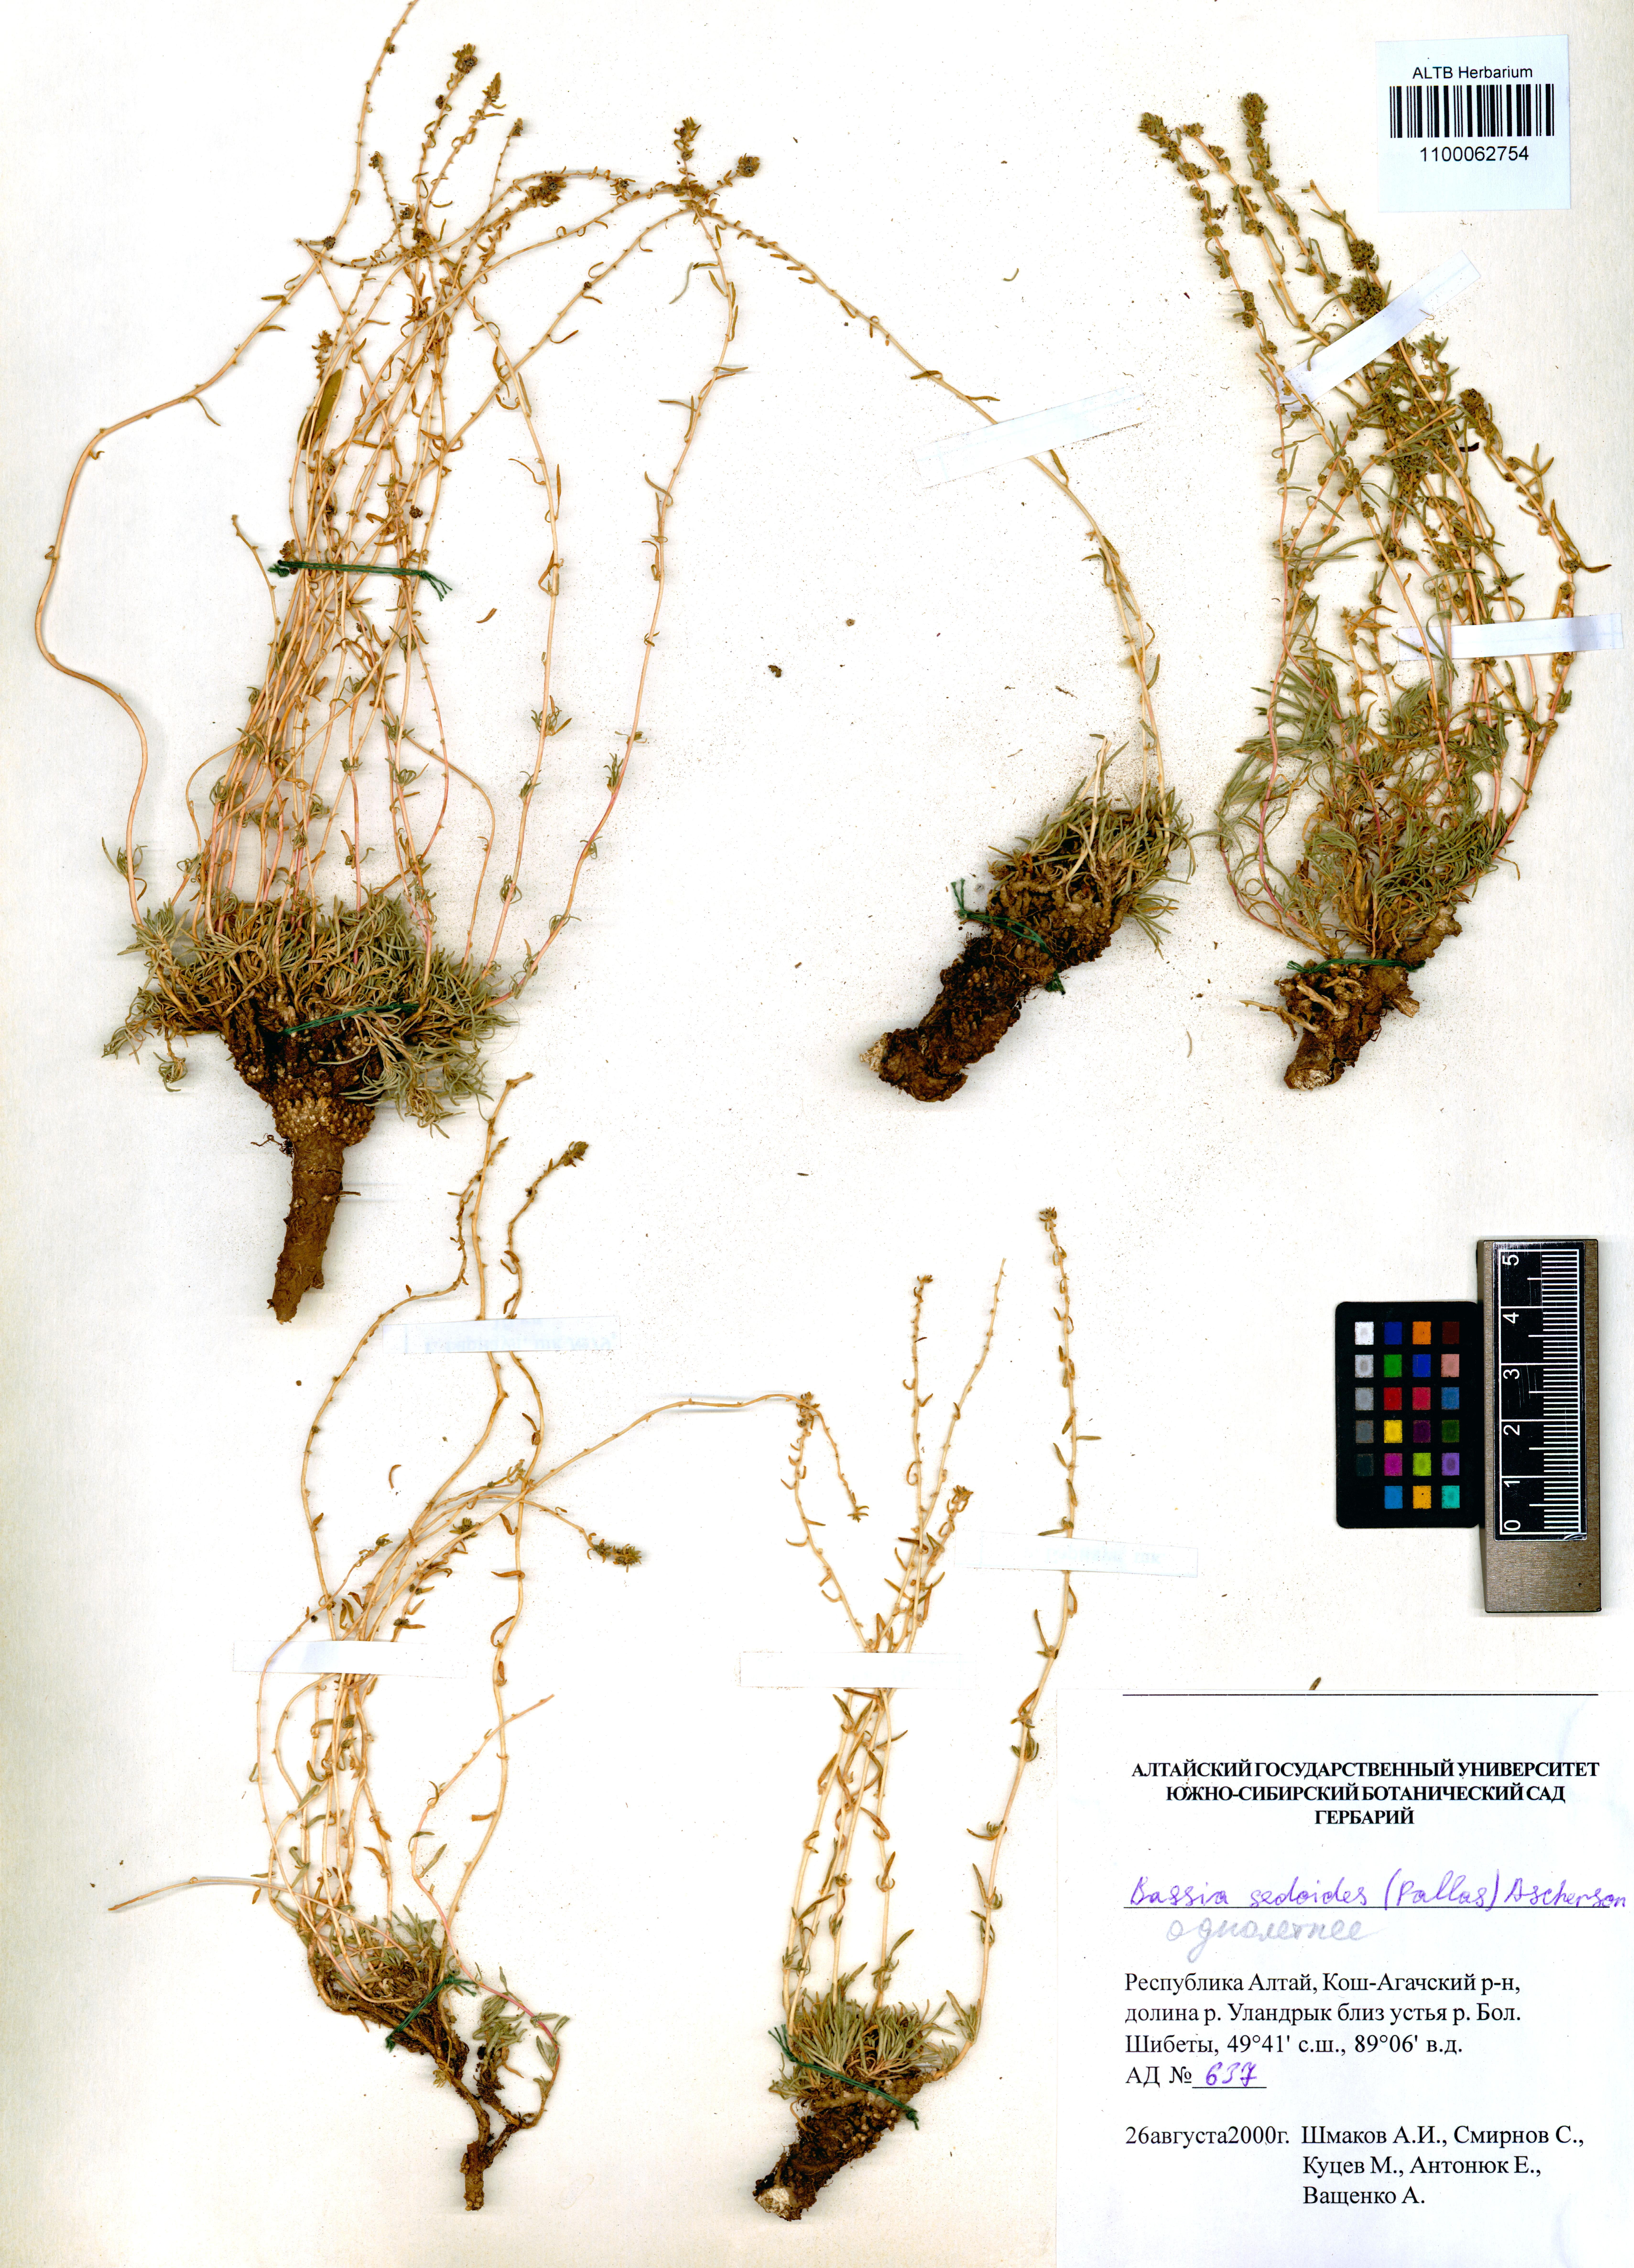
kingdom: Plantae
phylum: Tracheophyta
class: Magnoliopsida
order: Caryophyllales
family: Amaranthaceae
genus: Sedobassia
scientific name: Sedobassia sedoides
